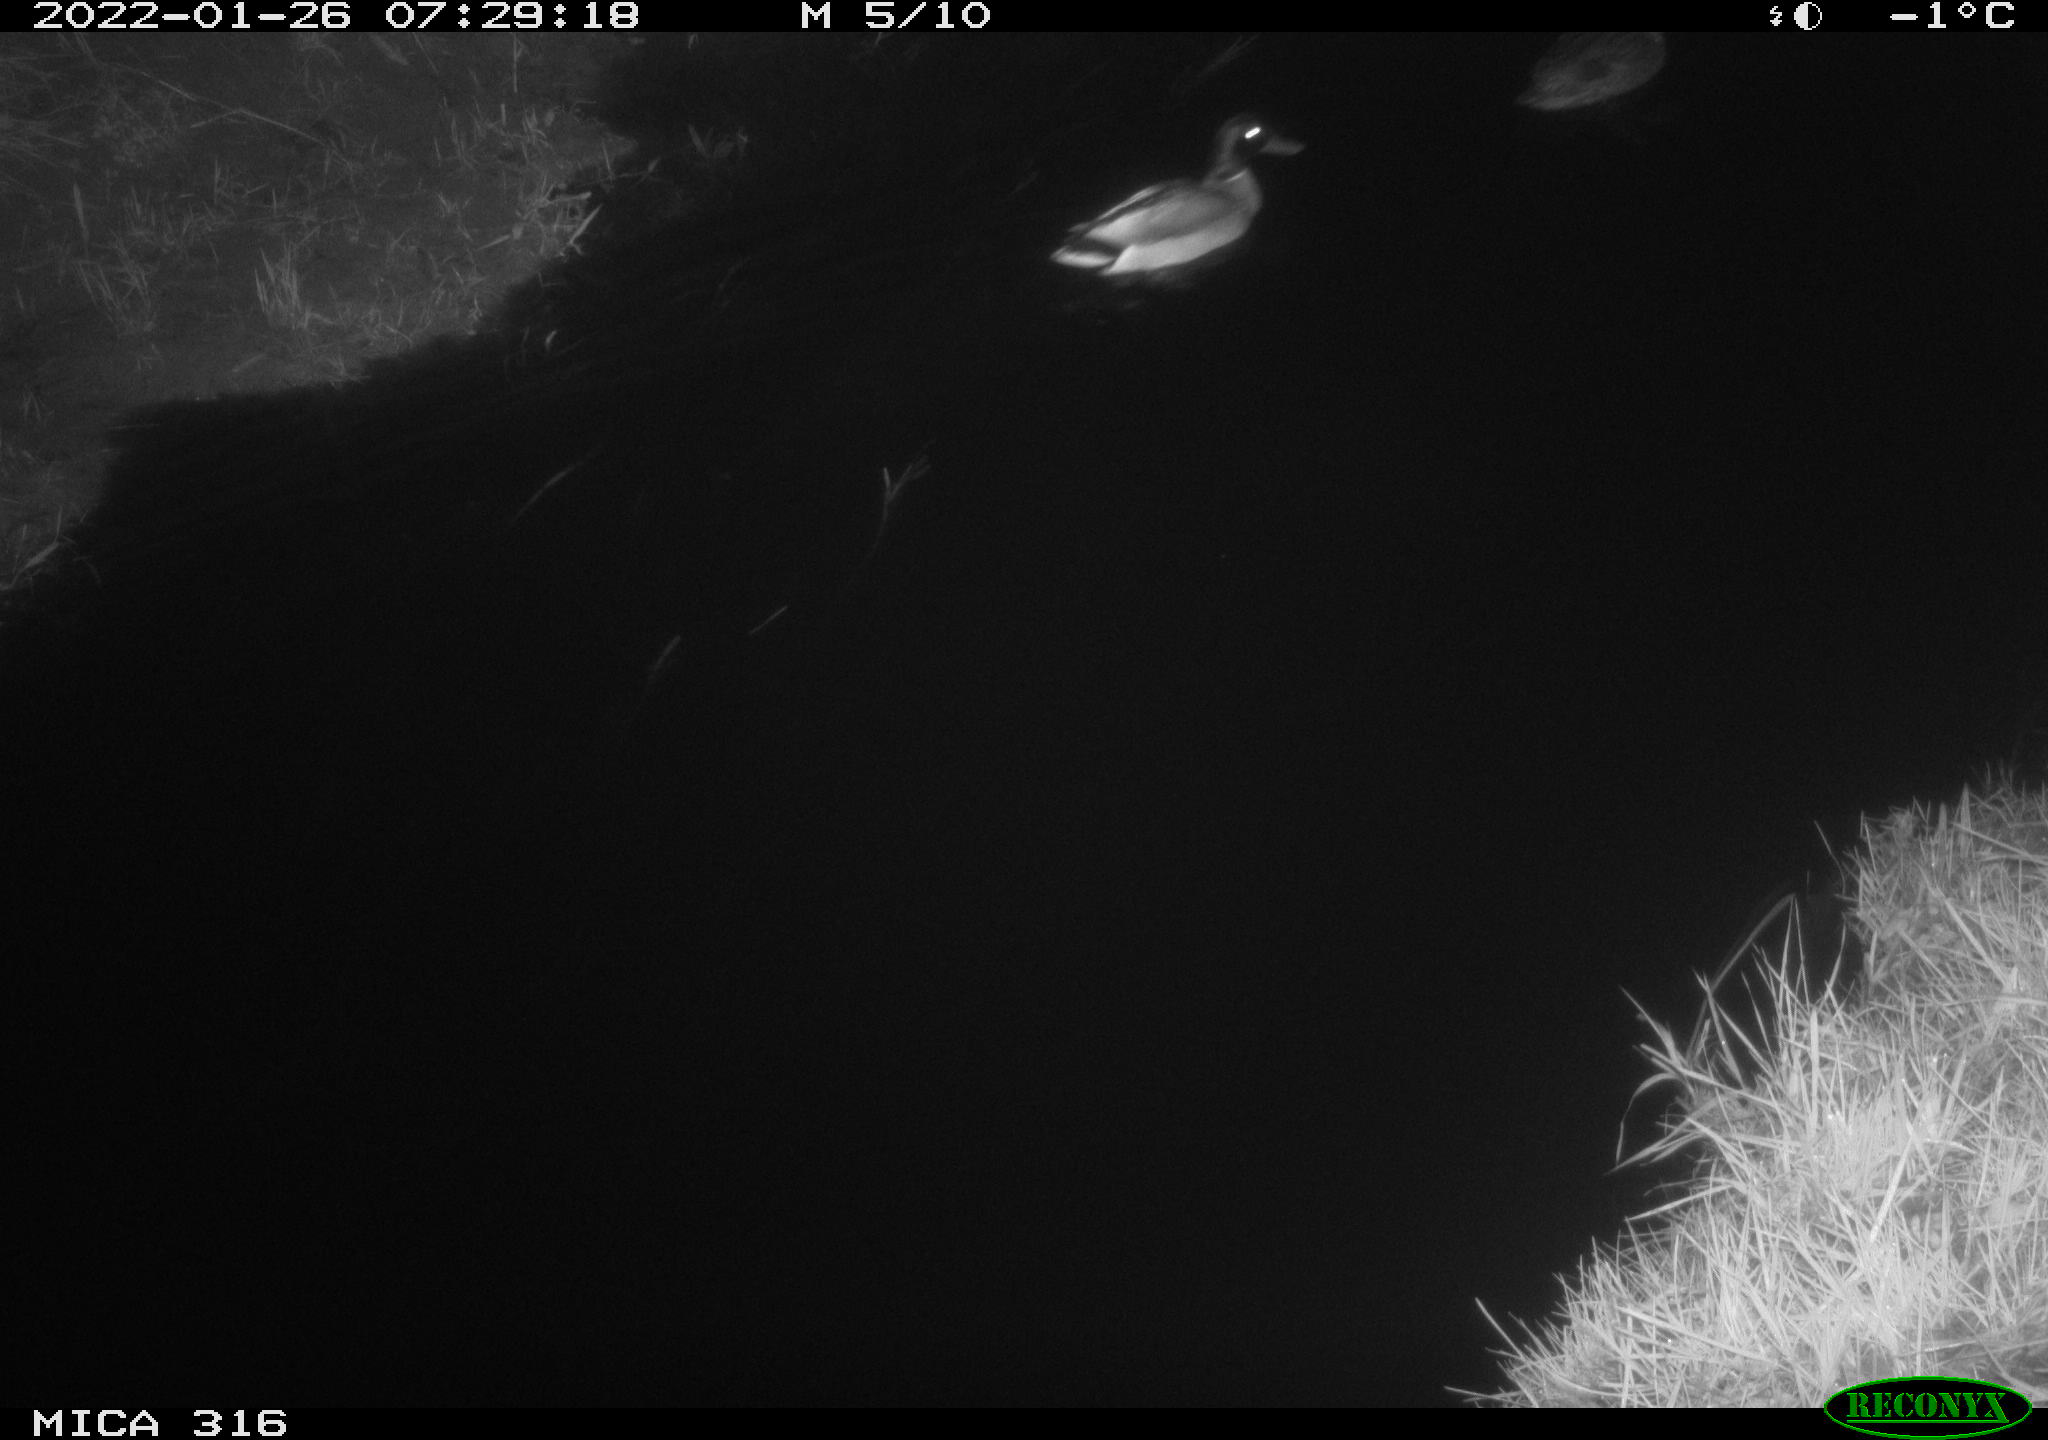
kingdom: Animalia
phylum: Chordata
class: Aves
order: Anseriformes
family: Anatidae
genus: Anas
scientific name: Anas platyrhynchos
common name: Mallard
